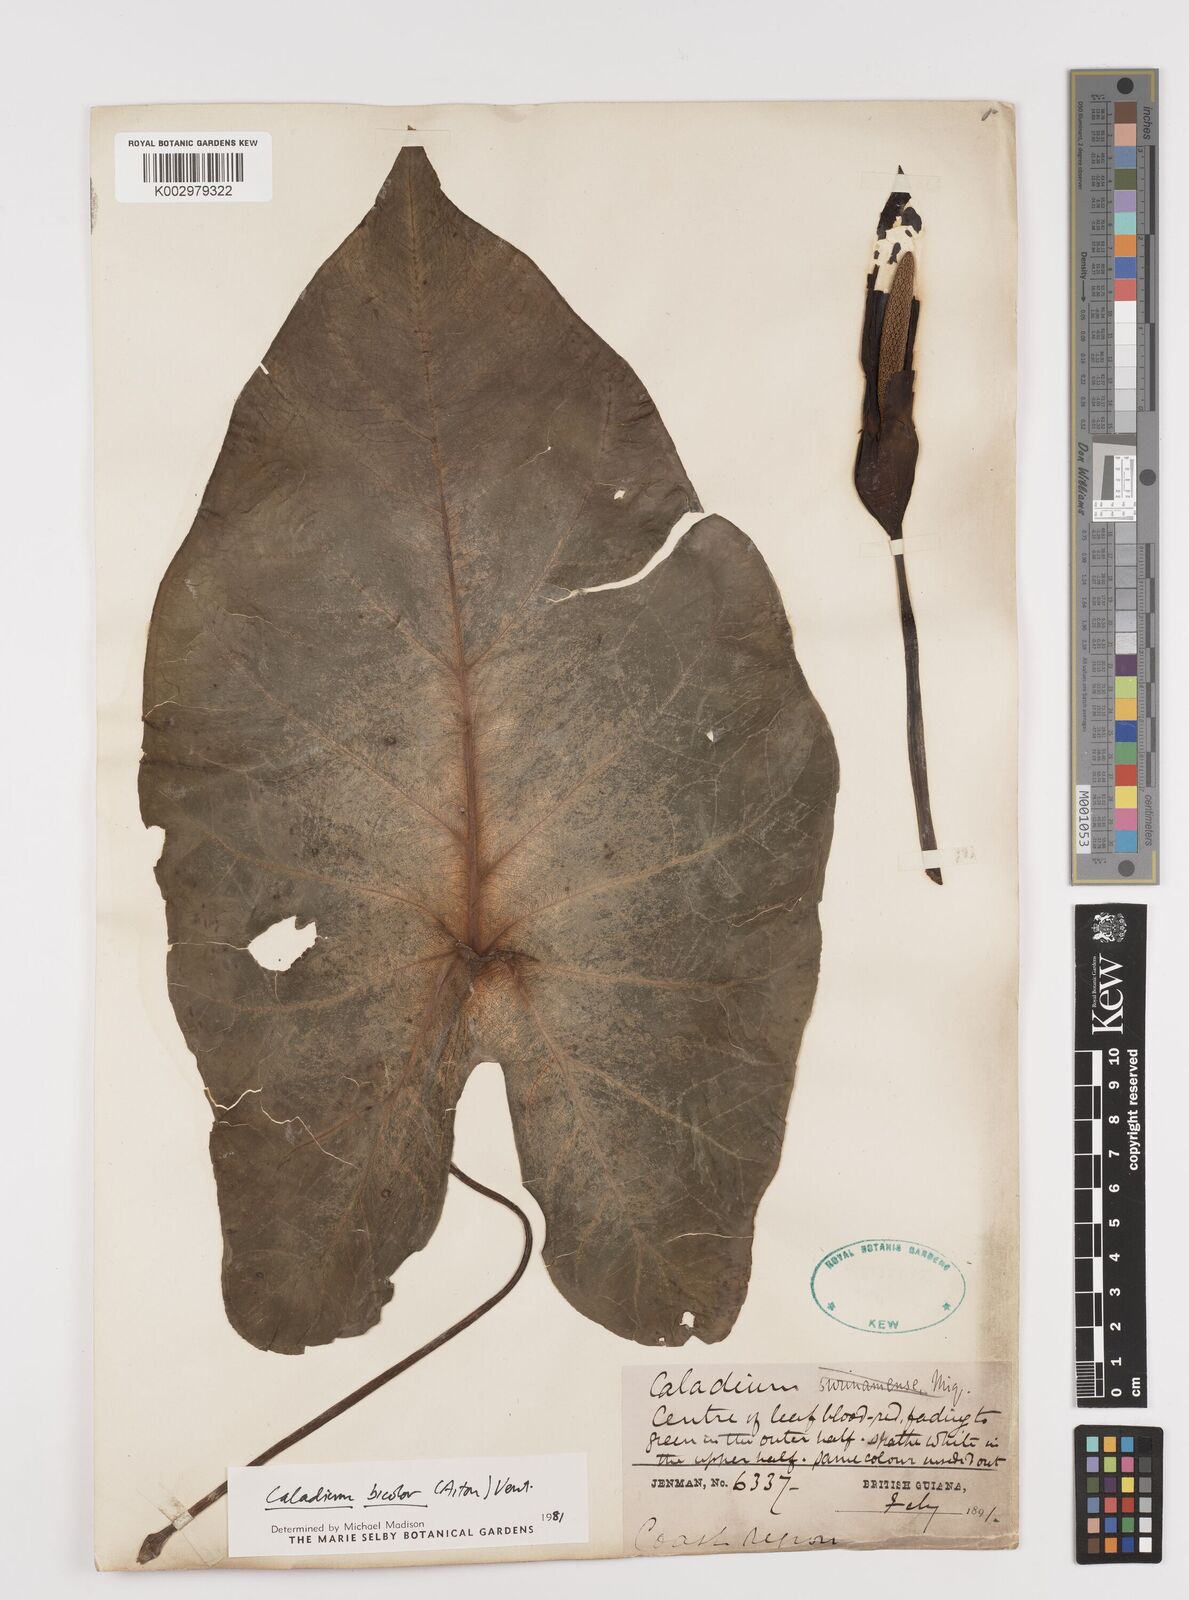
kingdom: Plantae
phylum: Tracheophyta
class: Liliopsida
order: Alismatales
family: Araceae
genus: Caladium
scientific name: Caladium bicolor
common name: Artist's pallet
